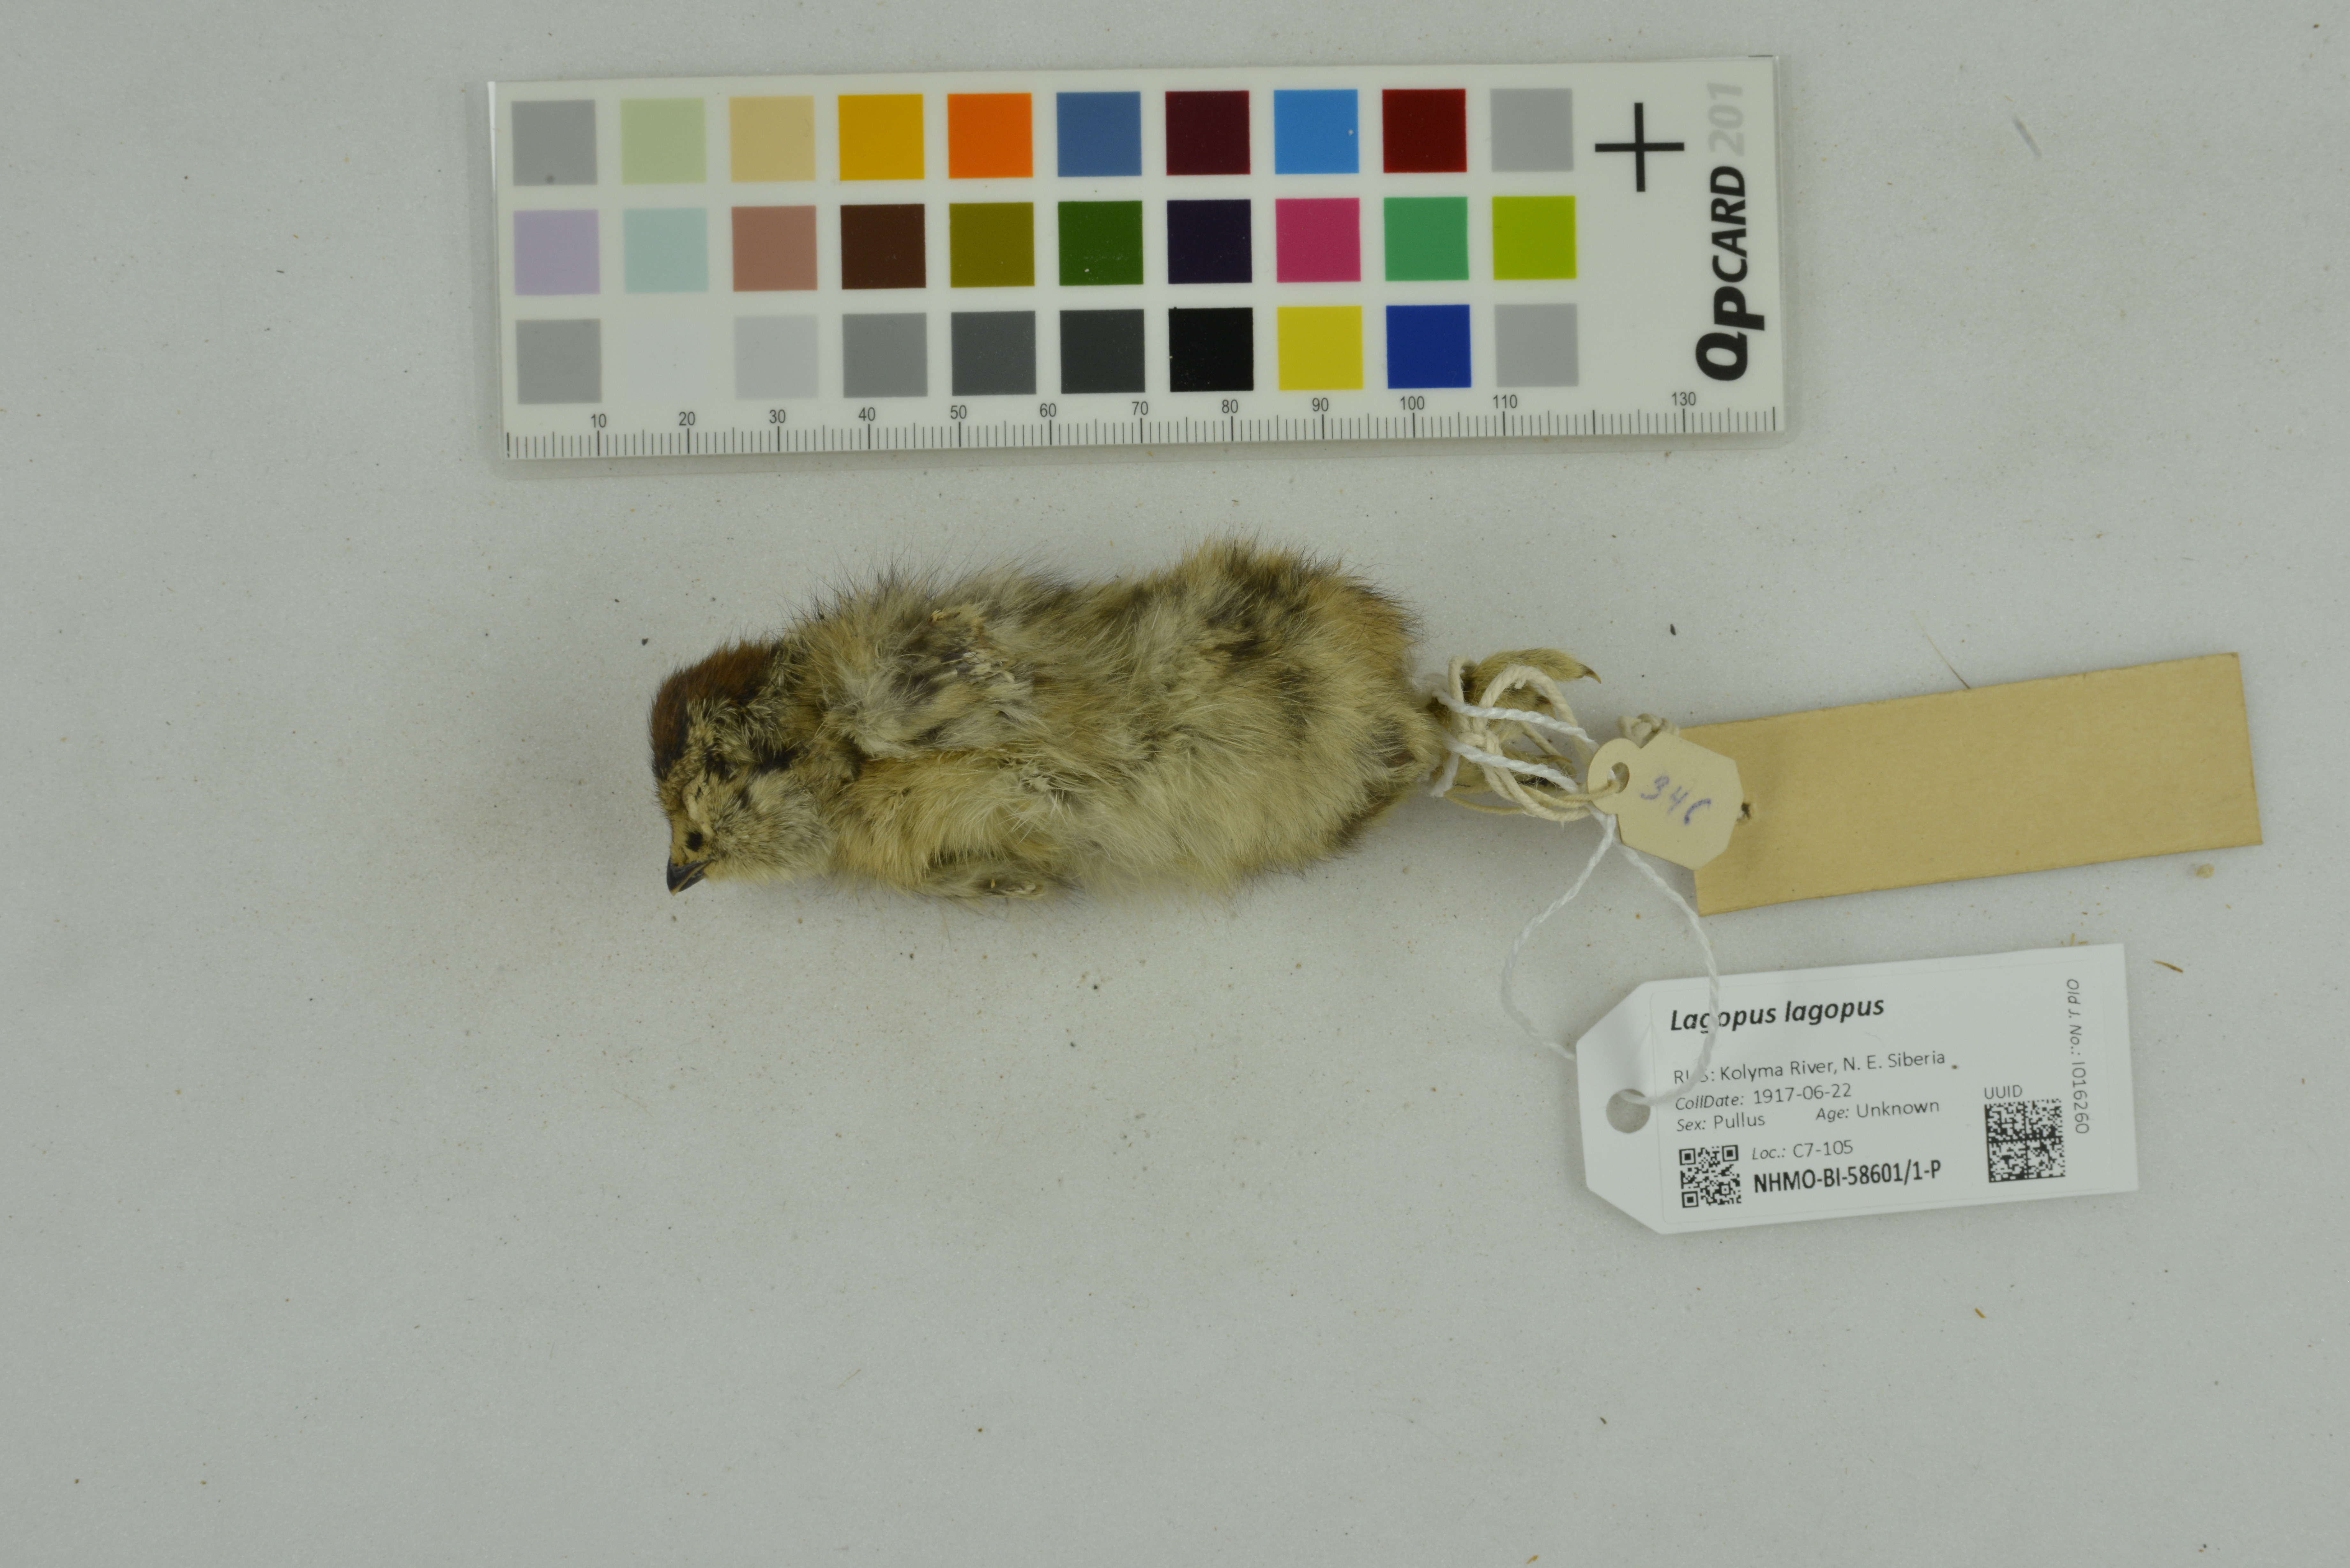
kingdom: Animalia
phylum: Chordata
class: Aves
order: Galliformes
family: Phasianidae
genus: Lagopus
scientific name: Lagopus lagopus
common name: Willow ptarmigan
